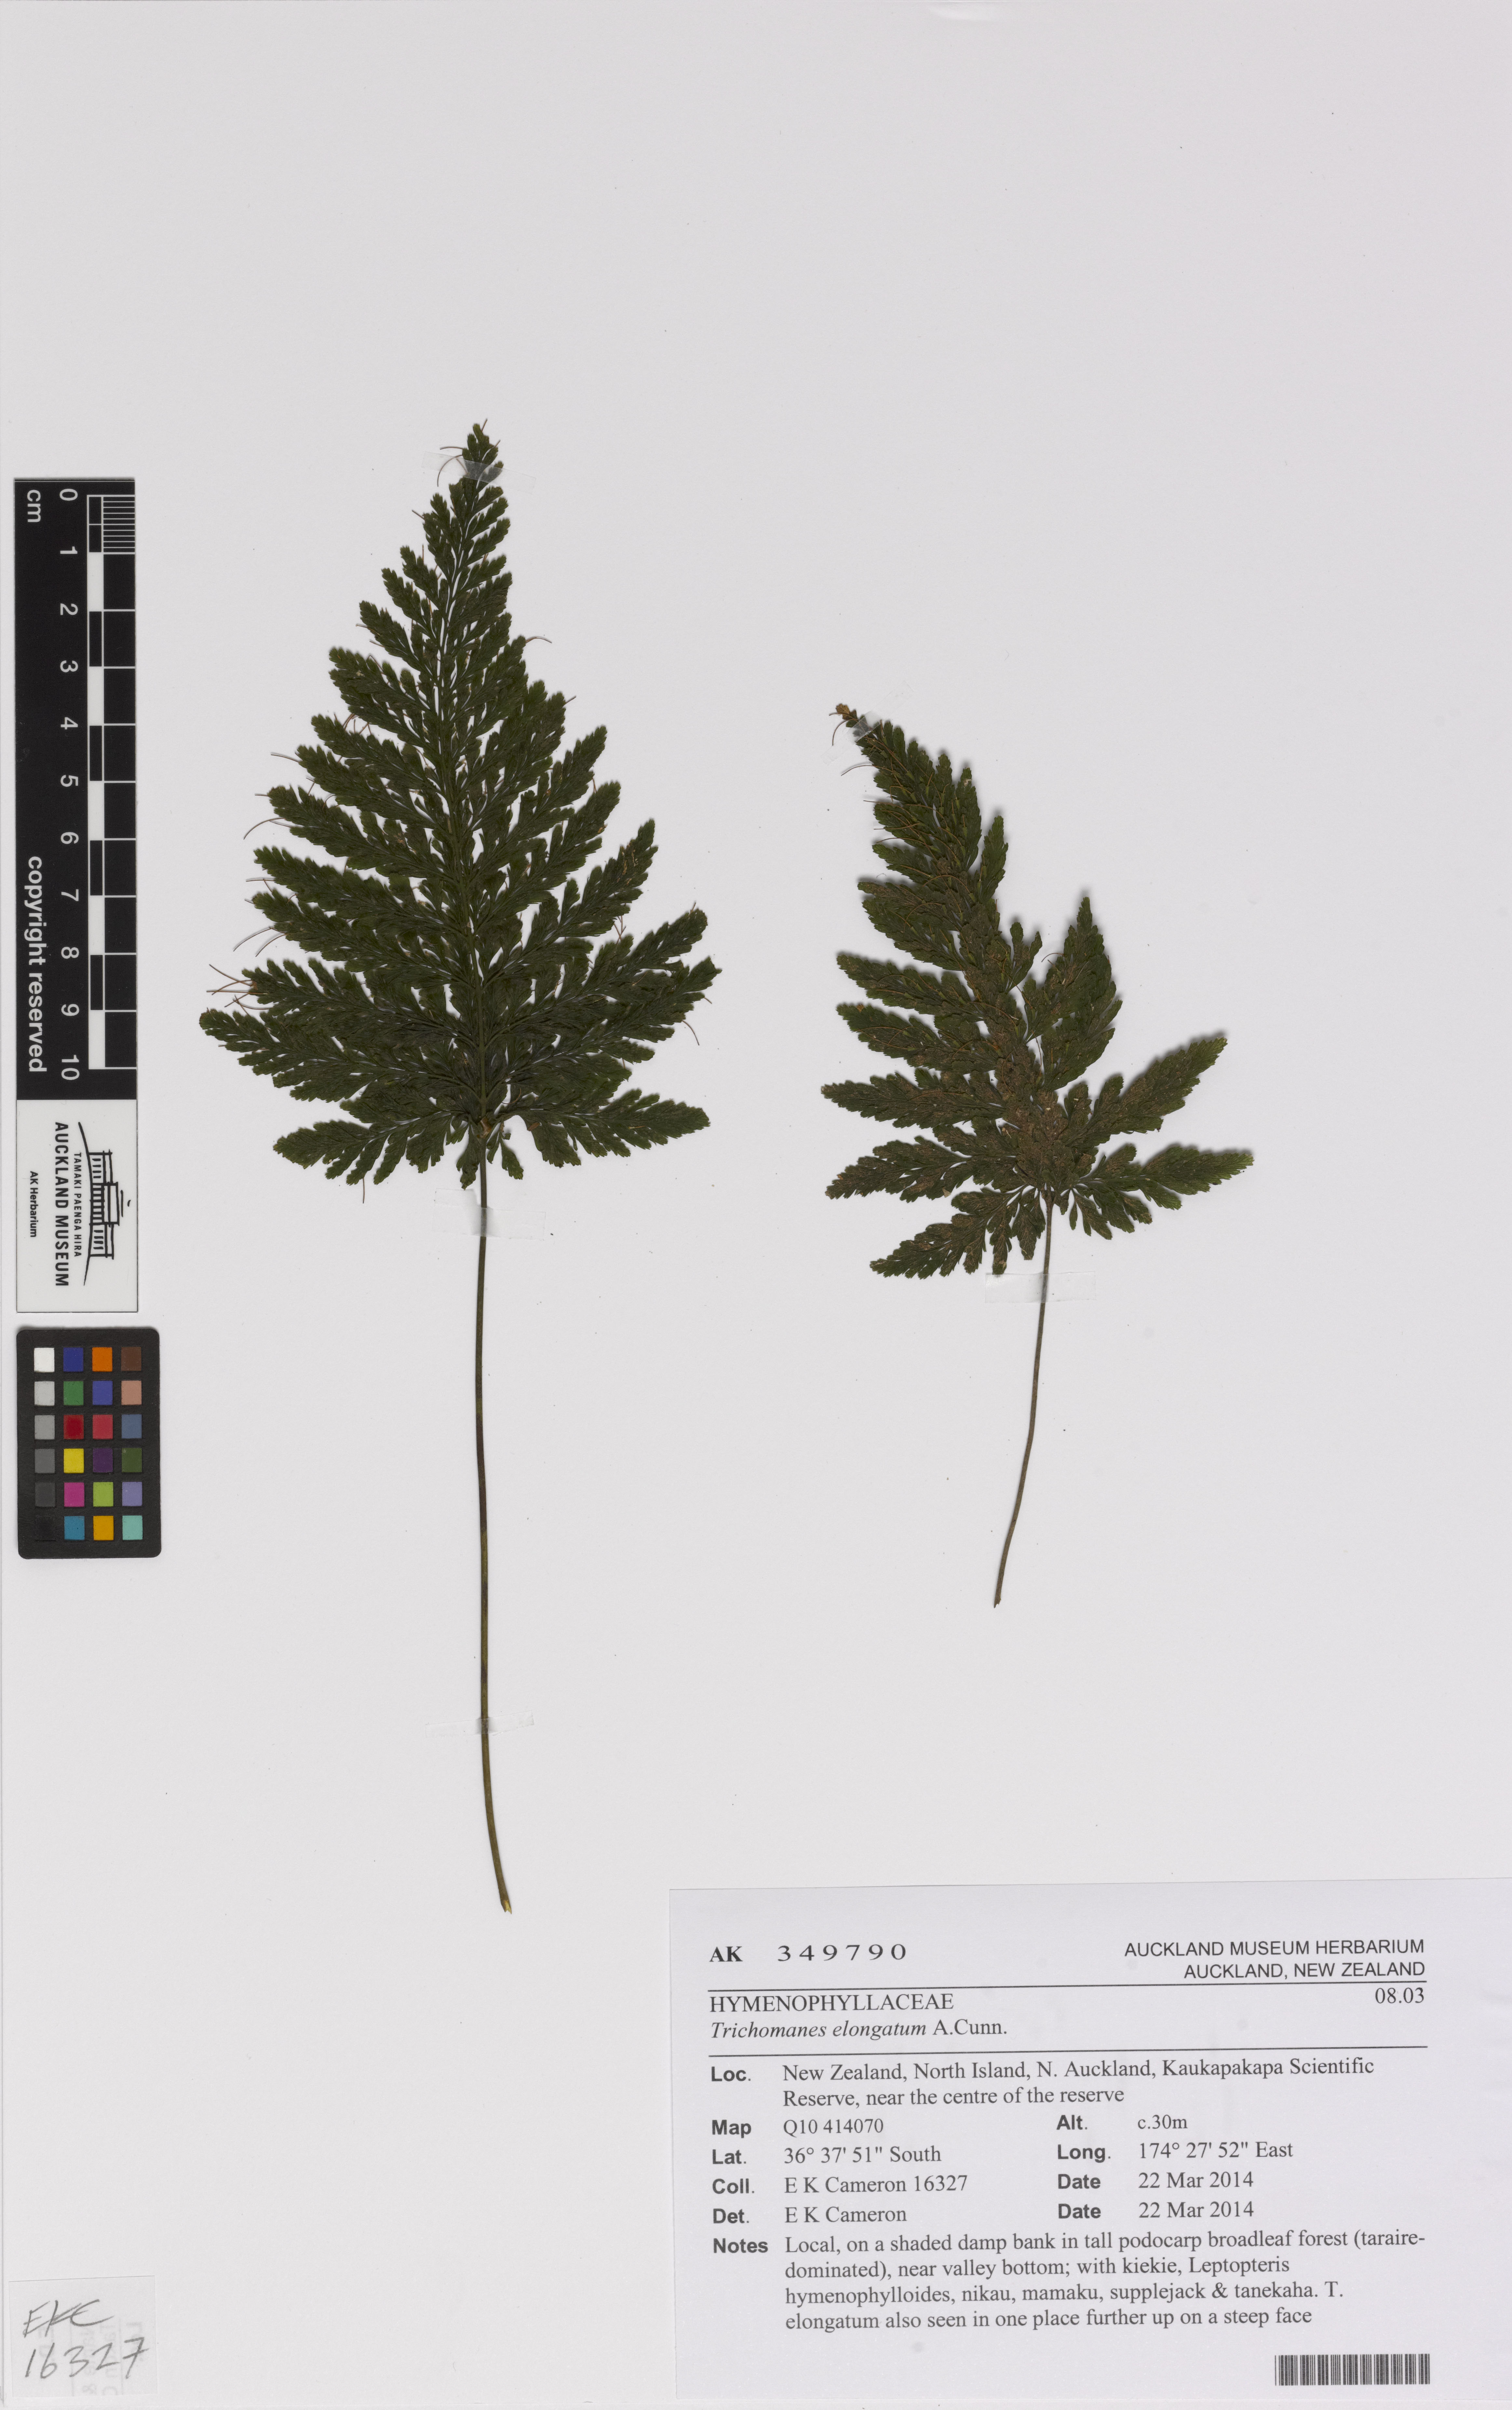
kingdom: Plantae
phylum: Tracheophyta
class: Polypodiopsida
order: Hymenophyllales
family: Hymenophyllaceae
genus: Abrodictyum
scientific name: Abrodictyum elongatum
